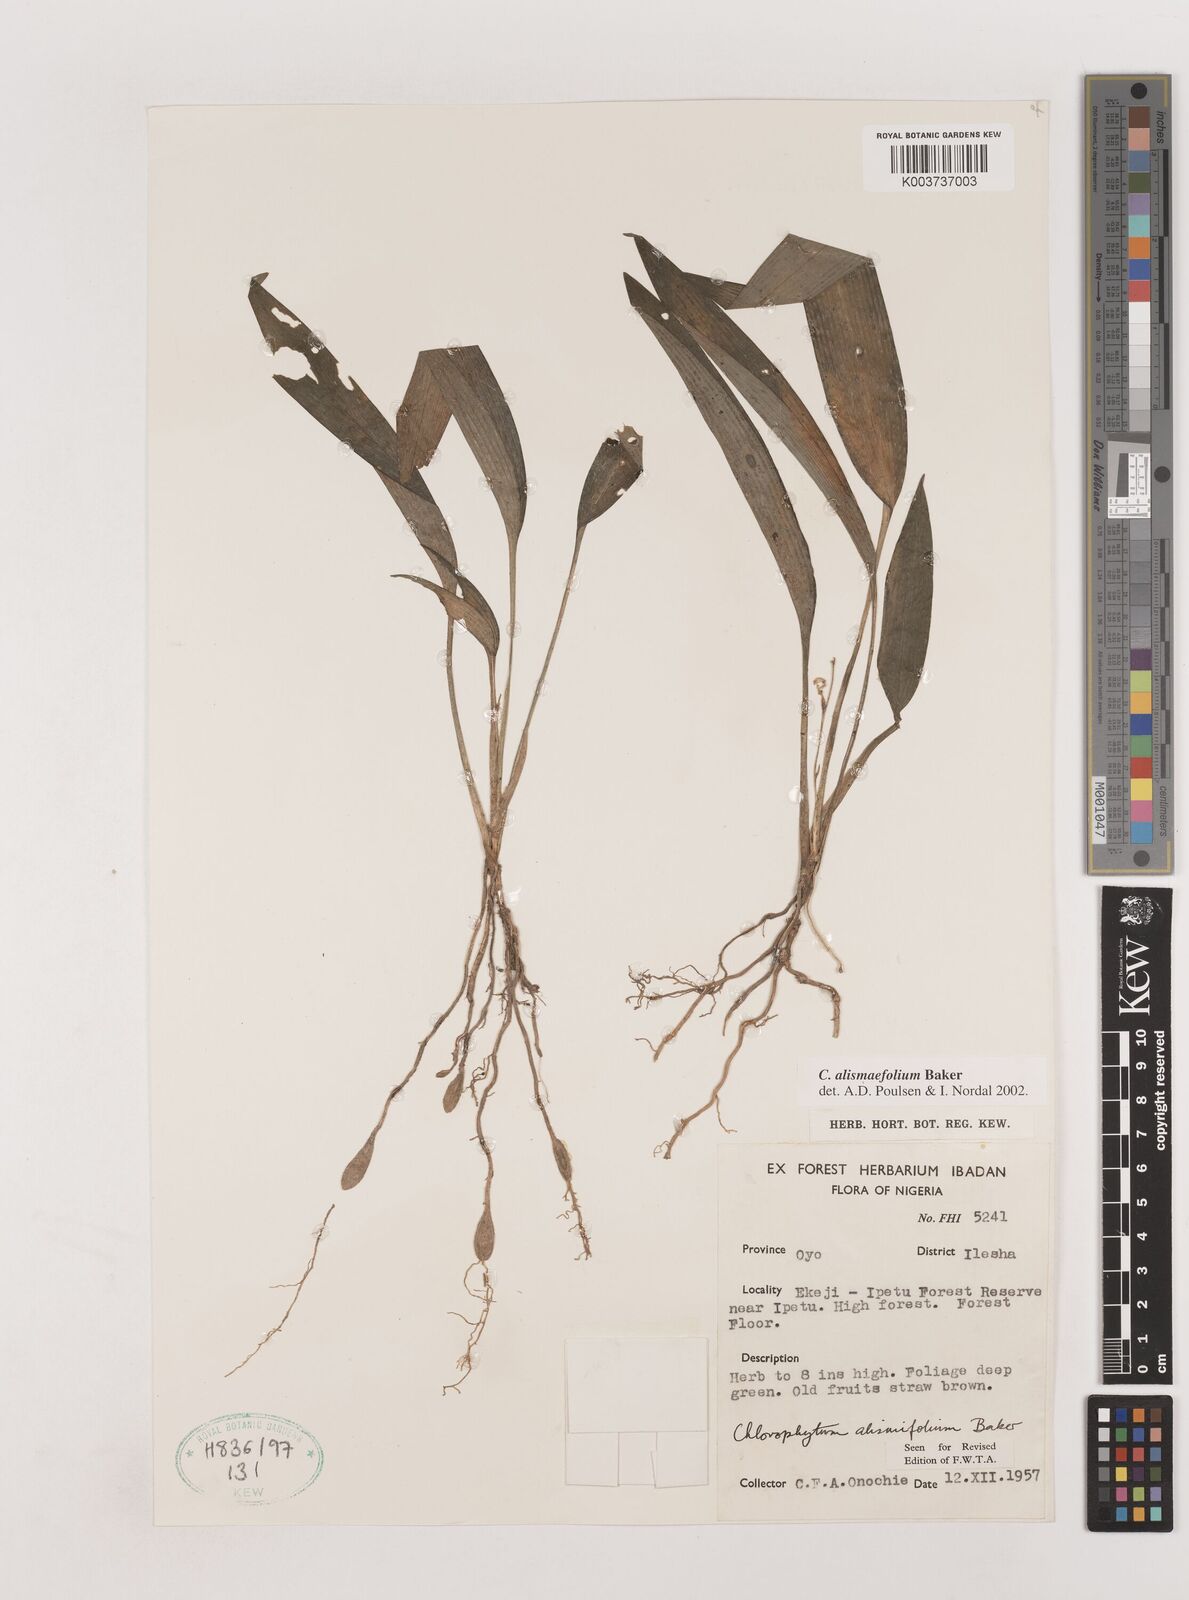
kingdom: Plantae
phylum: Tracheophyta
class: Liliopsida
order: Asparagales
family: Asparagaceae
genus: Chlorophytum
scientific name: Chlorophytum alismifolium
